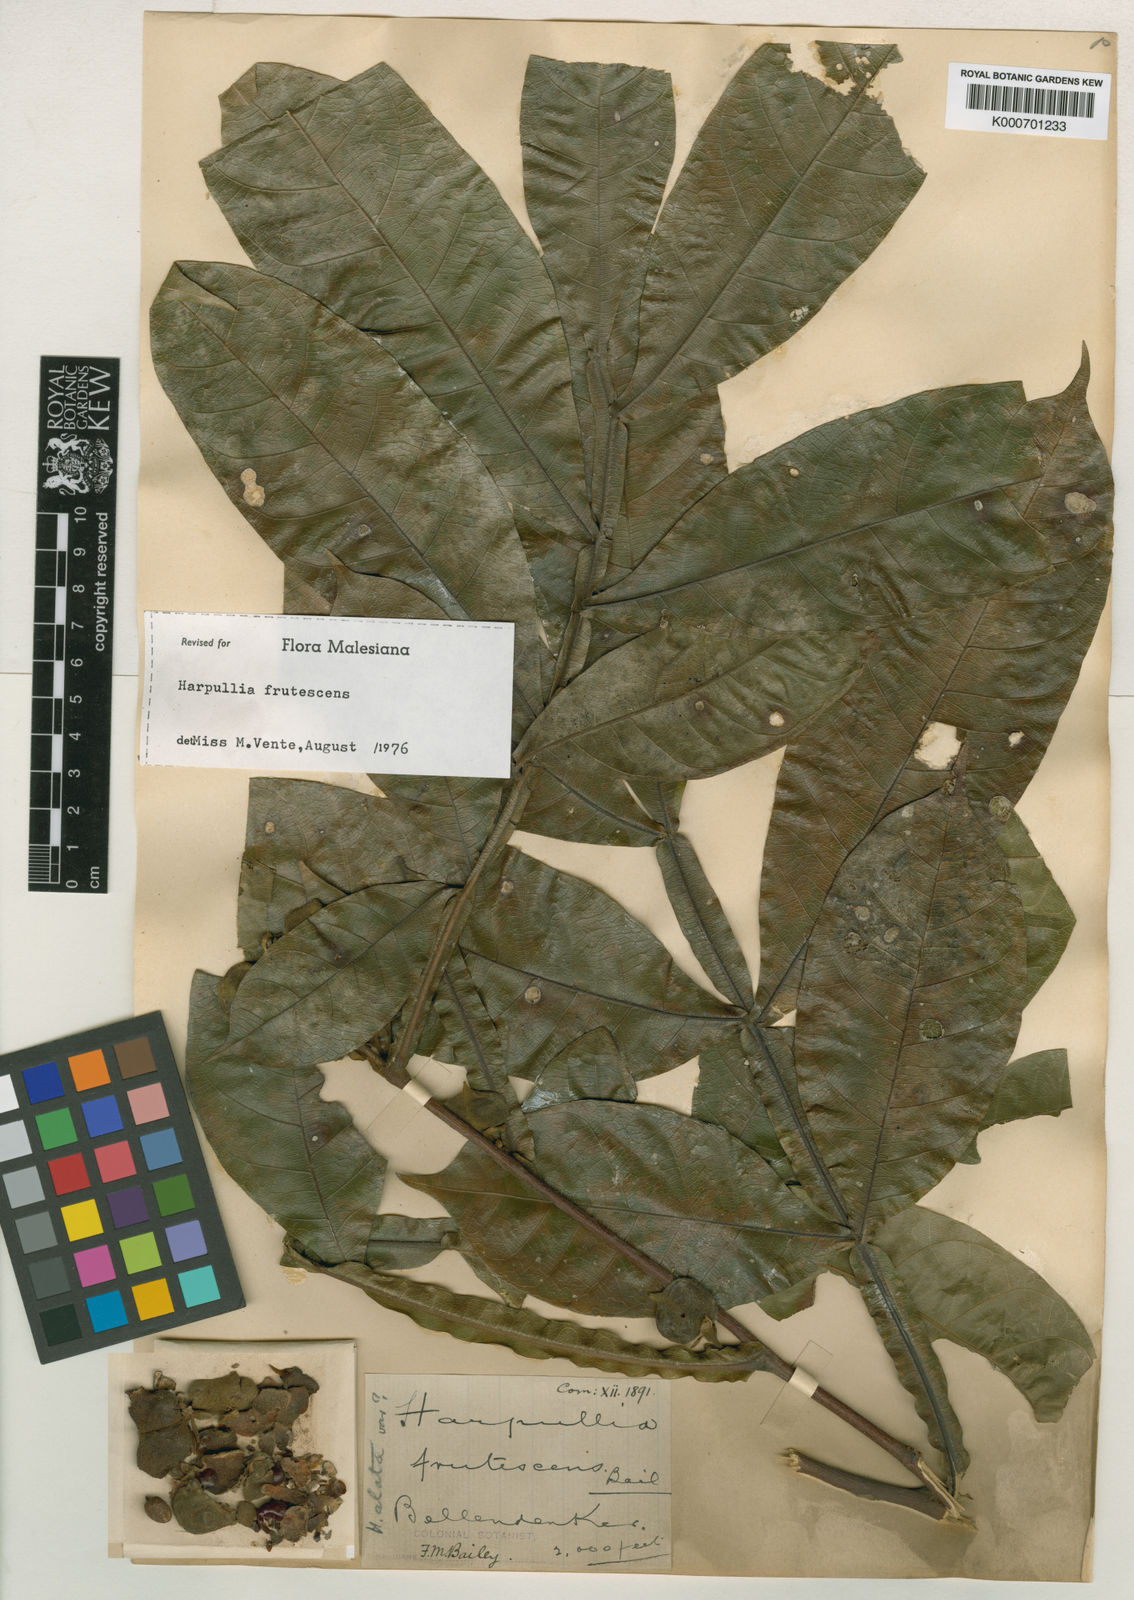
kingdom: Plantae
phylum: Tracheophyta
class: Magnoliopsida
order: Sapindales
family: Sapindaceae
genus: Harpullia
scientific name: Harpullia frutescens
